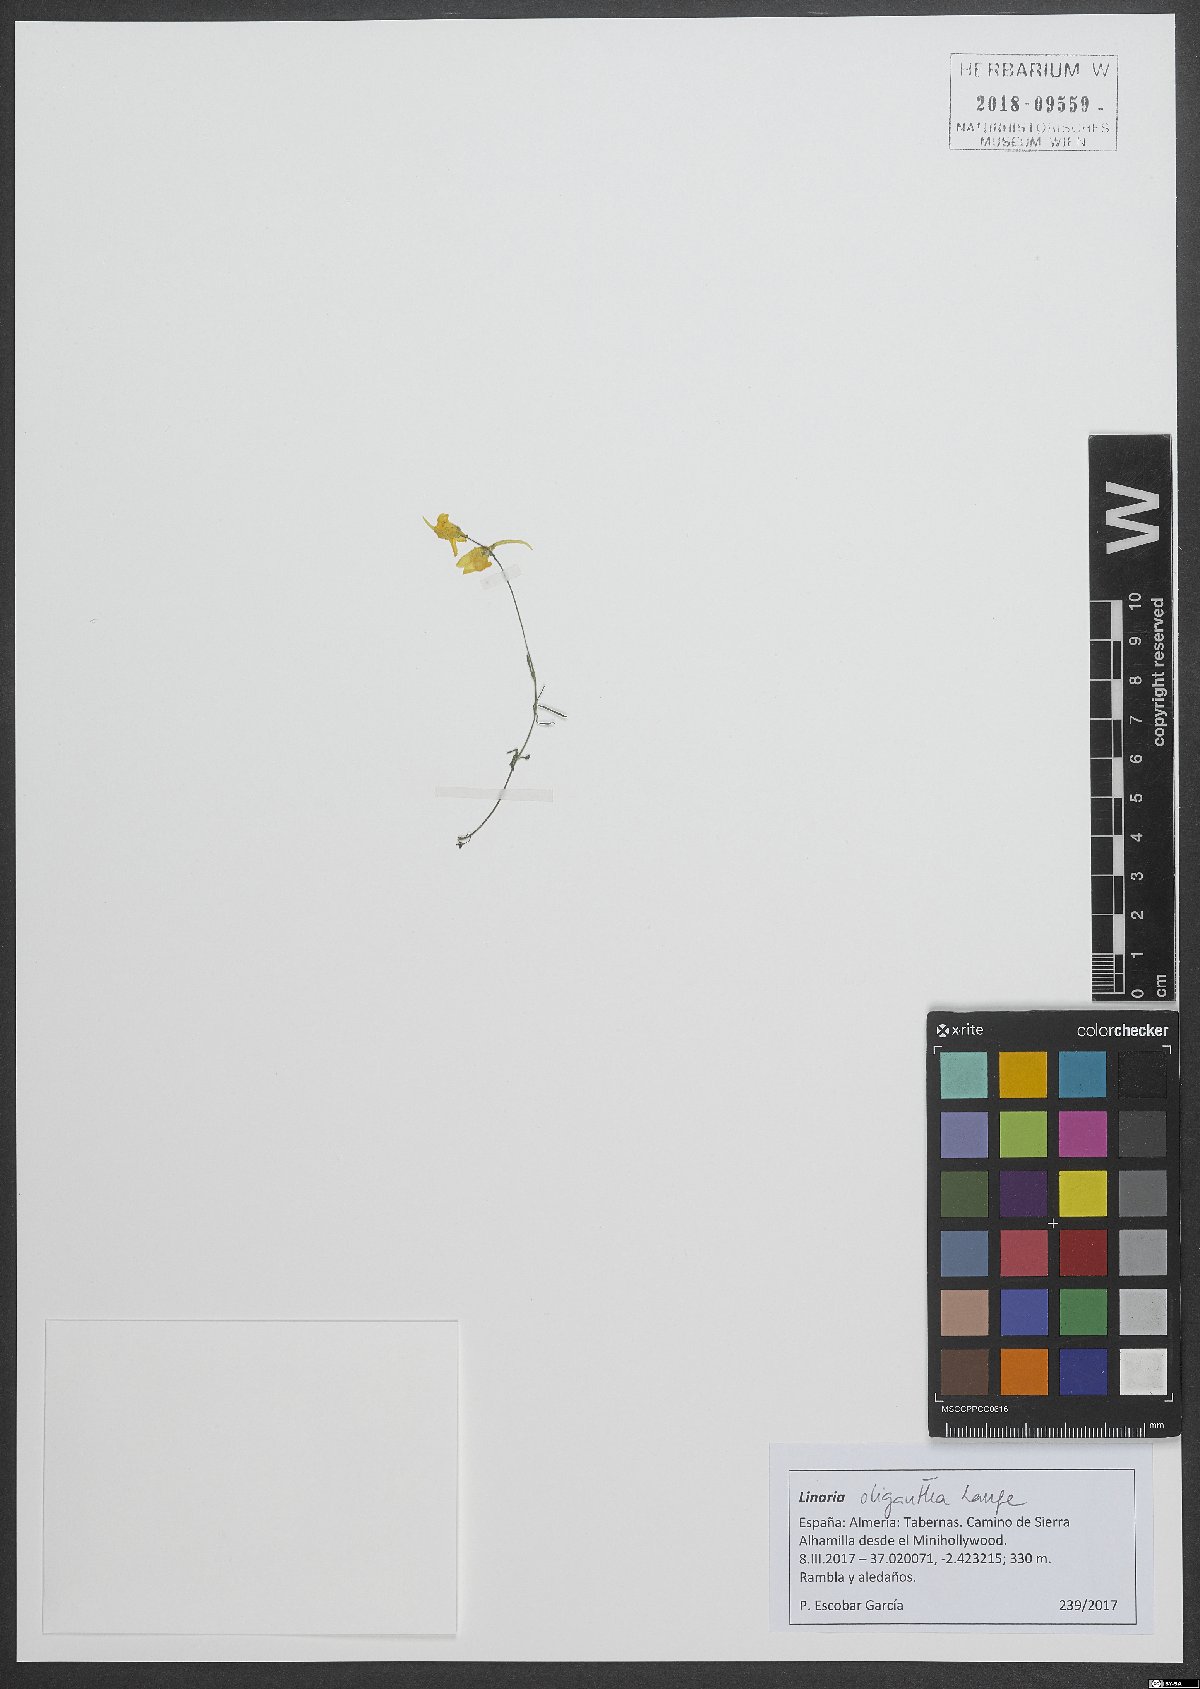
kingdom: Plantae
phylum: Tracheophyta
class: Magnoliopsida
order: Lamiales
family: Plantaginaceae
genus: Linaria
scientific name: Linaria oligantha
